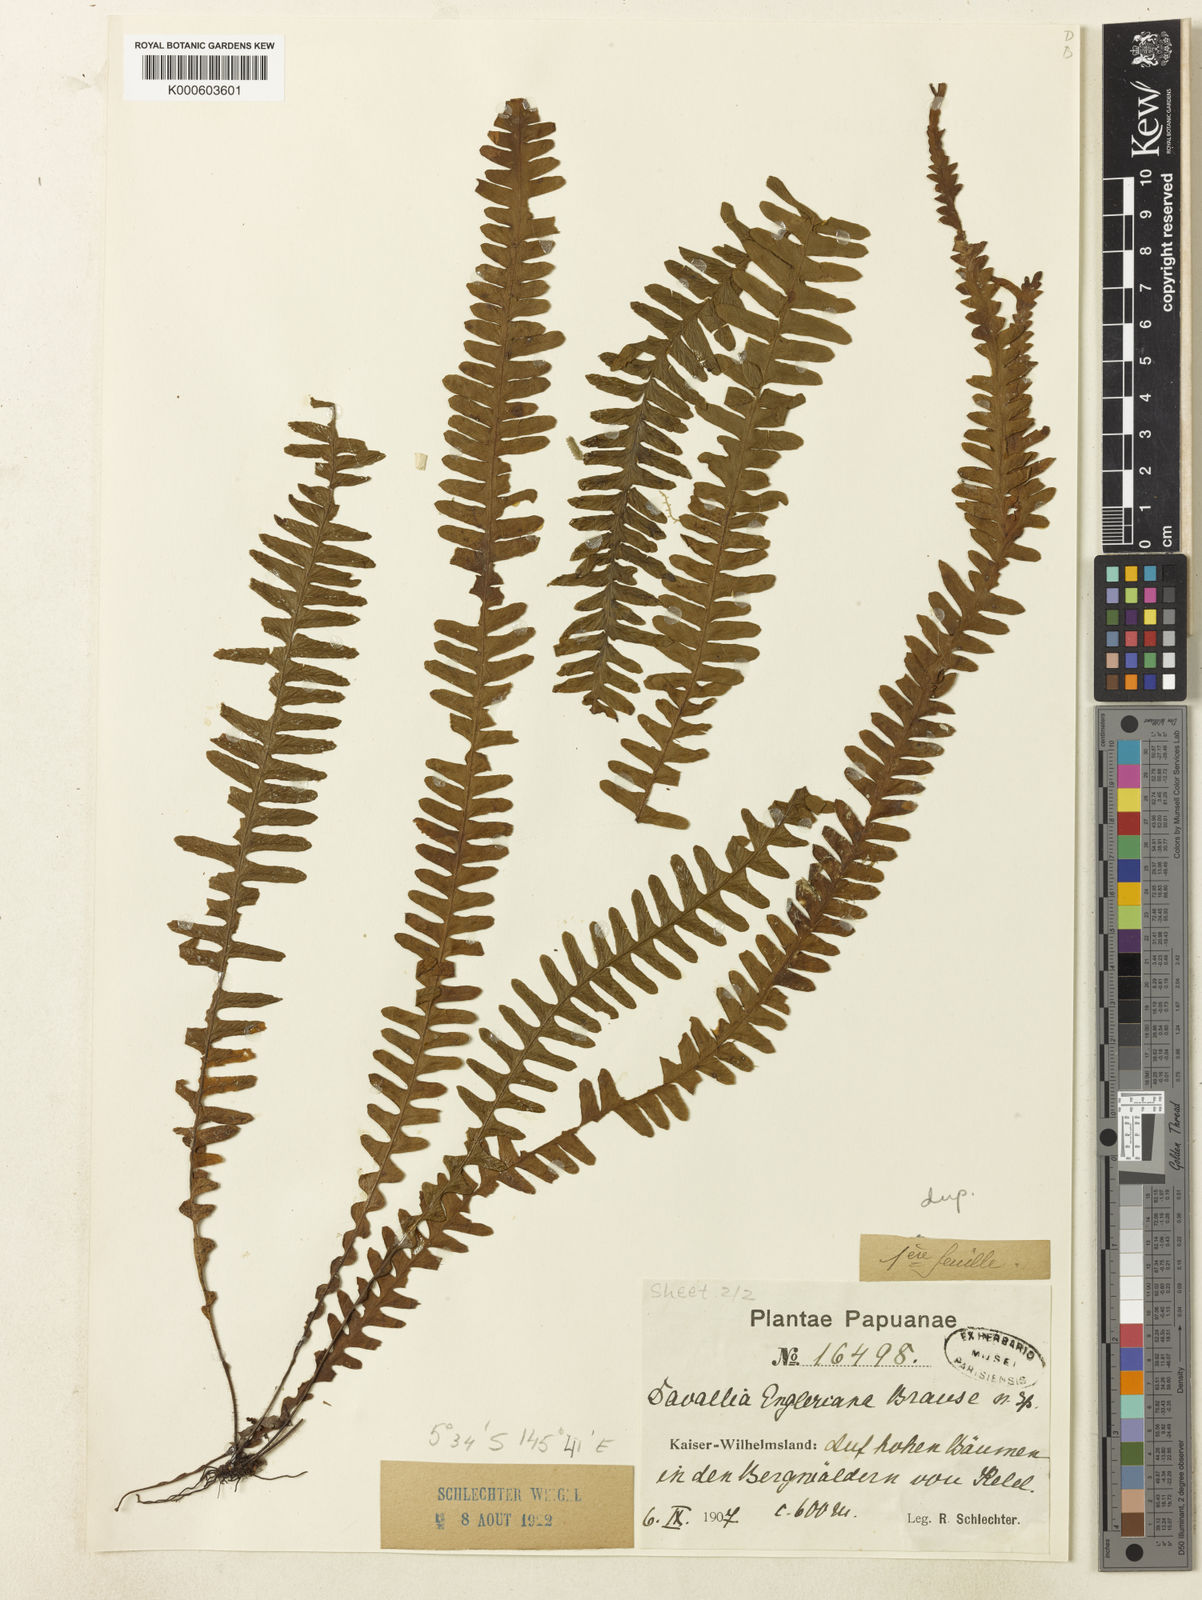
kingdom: Plantae
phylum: Tracheophyta
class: Polypodiopsida
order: Polypodiales
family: Polypodiaceae
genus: Prosaptia
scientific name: Prosaptia engleriana
